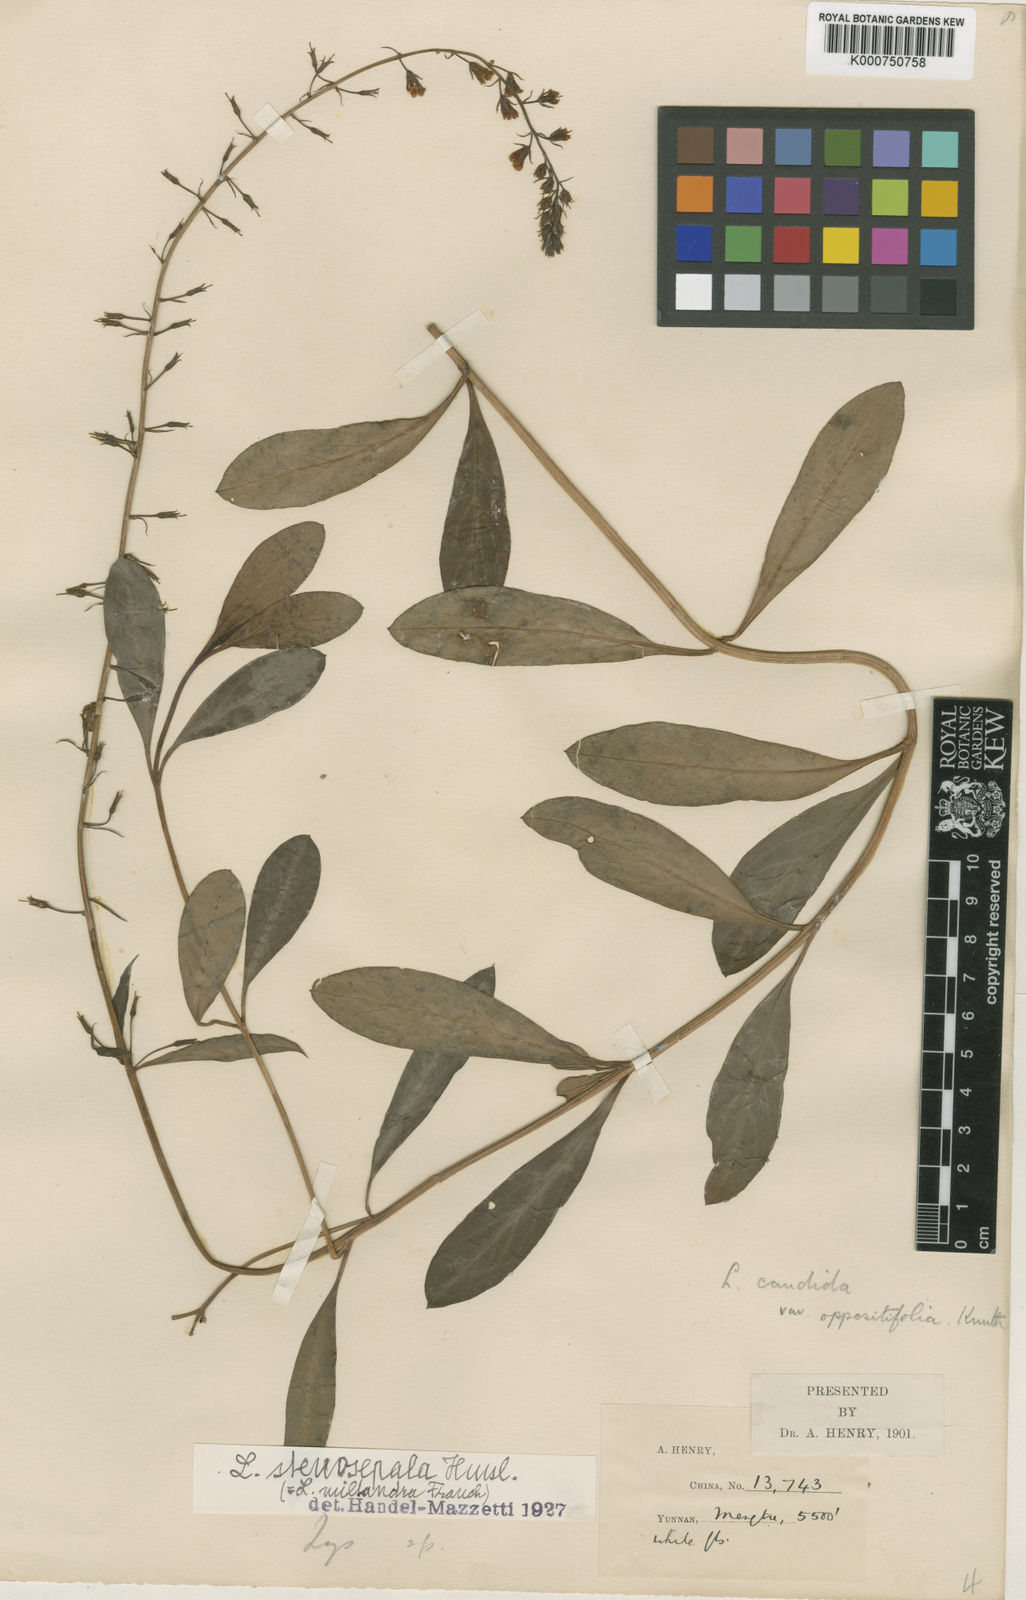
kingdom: Plantae
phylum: Tracheophyta
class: Magnoliopsida
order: Ericales
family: Primulaceae
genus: Lysimachia
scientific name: Lysimachia stenosepala
